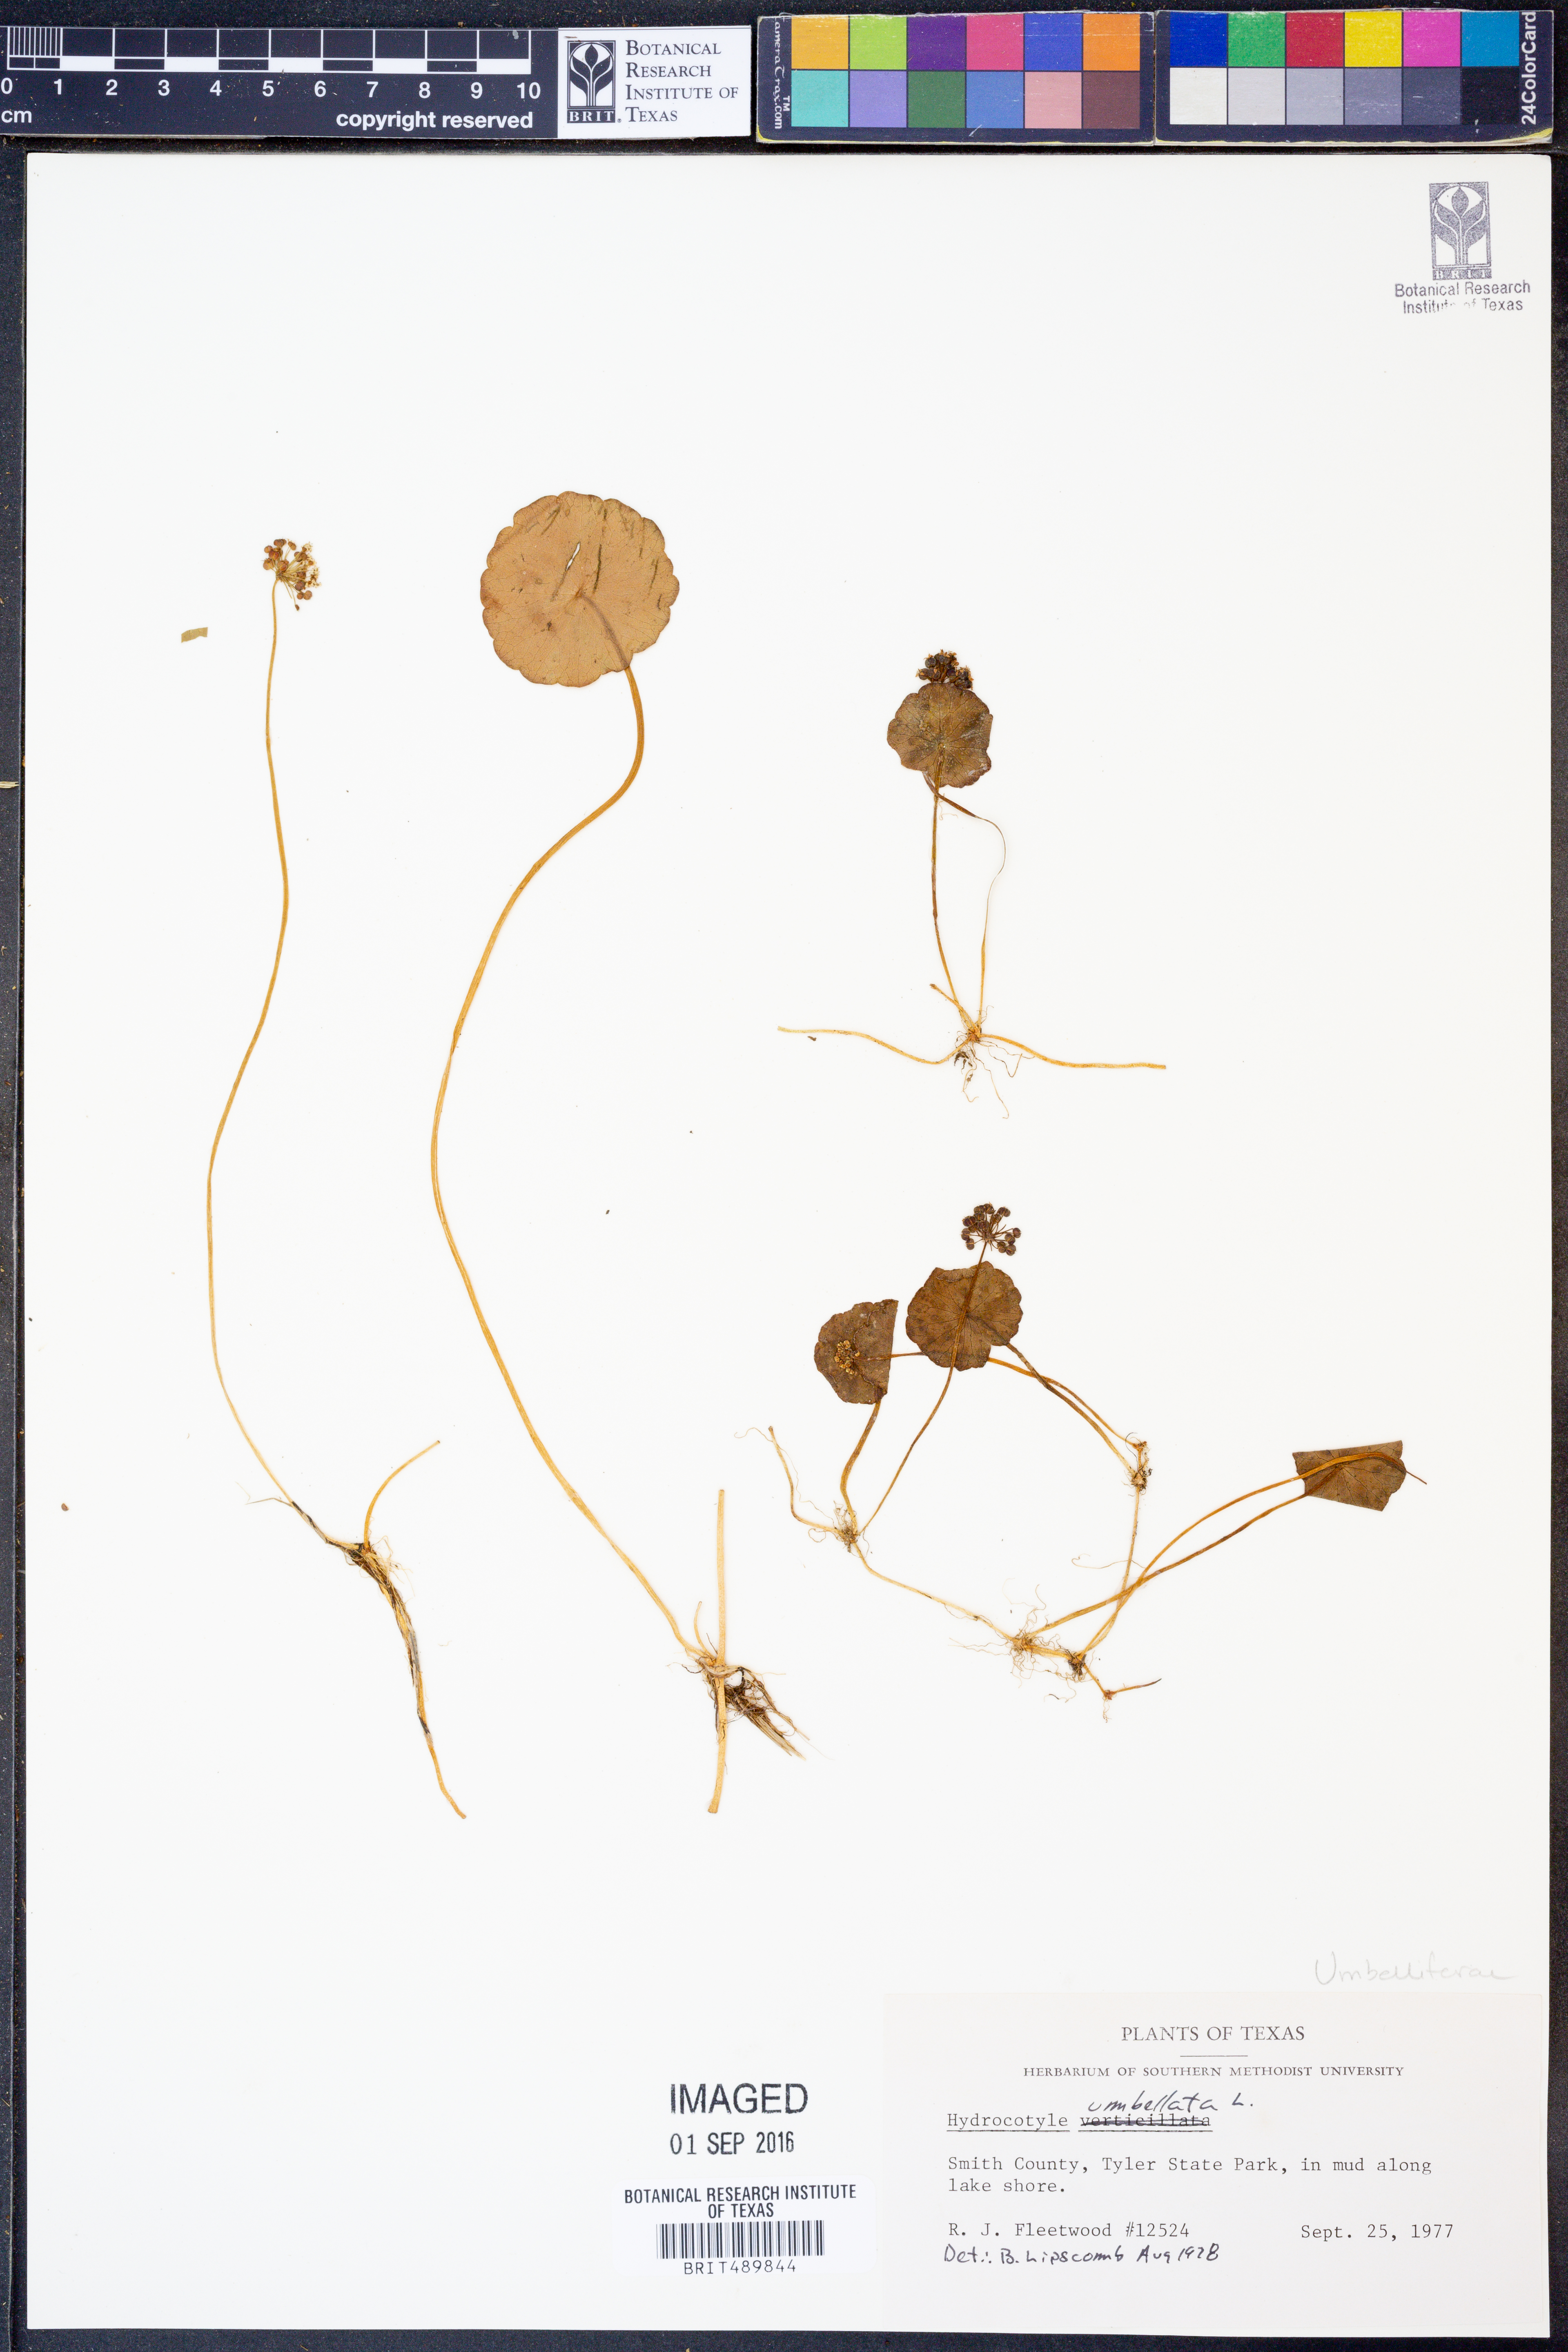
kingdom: Plantae
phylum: Tracheophyta
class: Magnoliopsida
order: Apiales
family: Araliaceae
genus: Hydrocotyle
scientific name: Hydrocotyle umbellata
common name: Water pennywort
